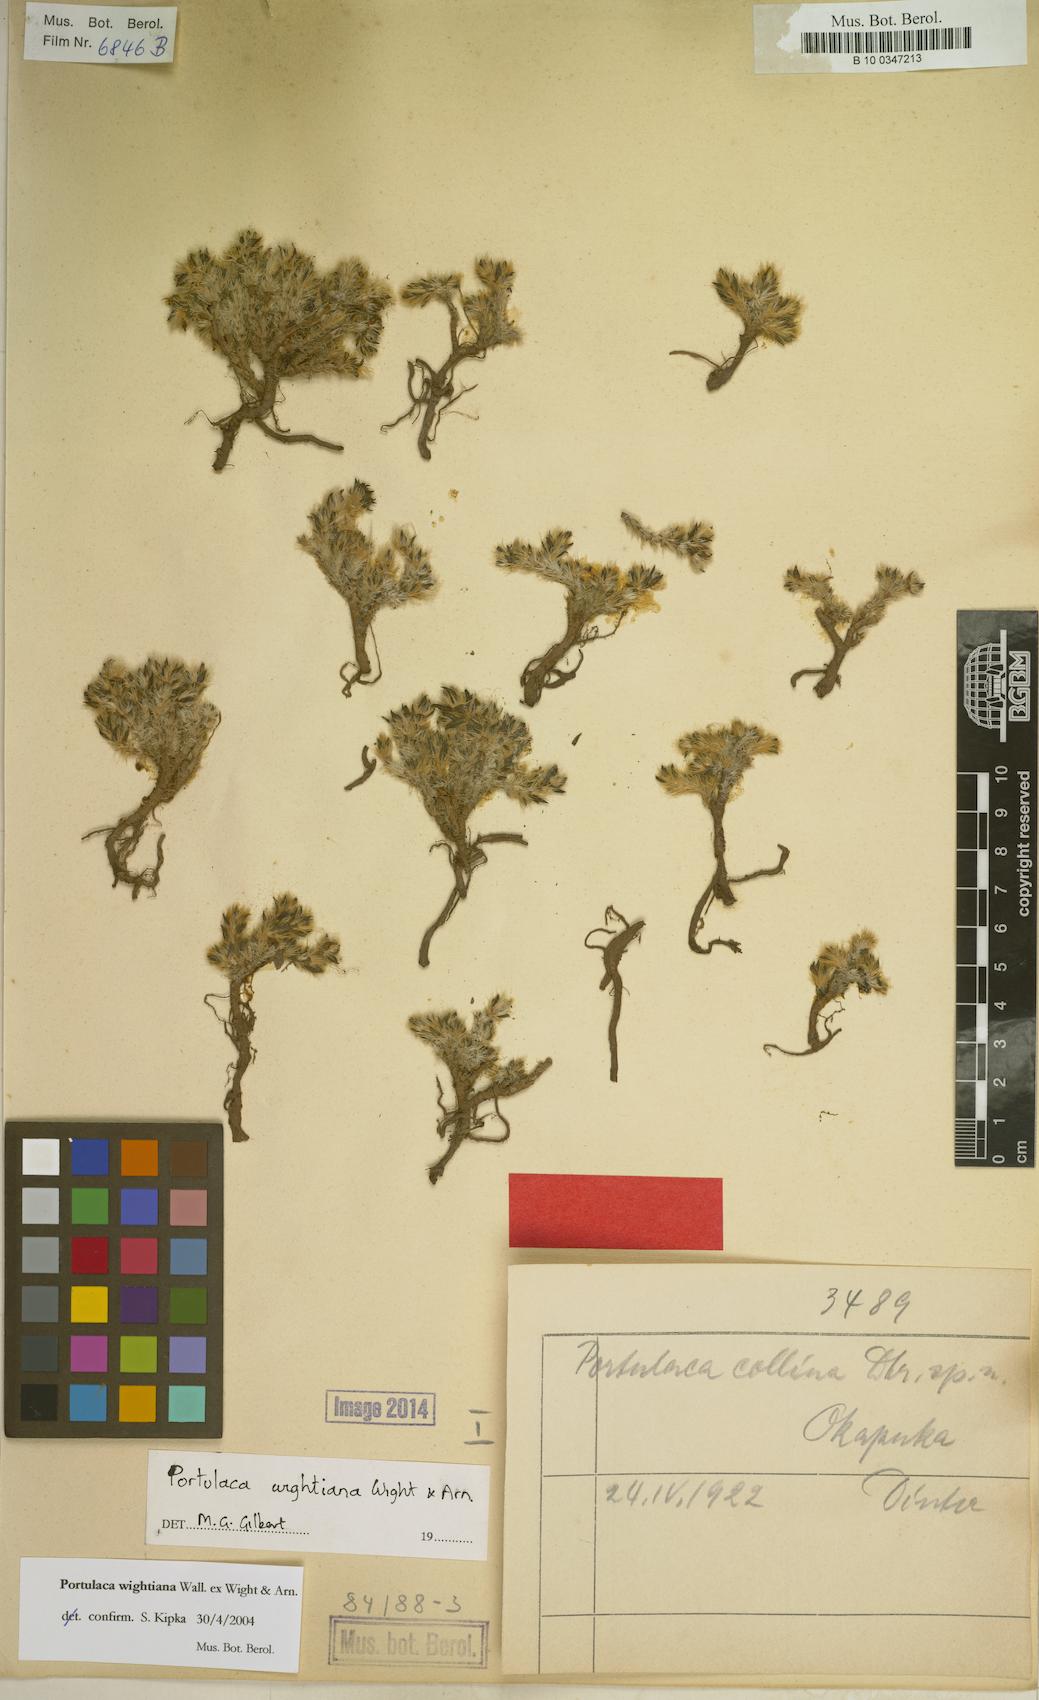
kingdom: Plantae
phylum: Tracheophyta
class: Magnoliopsida
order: Caryophyllales
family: Portulacaceae
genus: Portulaca
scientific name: Portulaca wightiana
